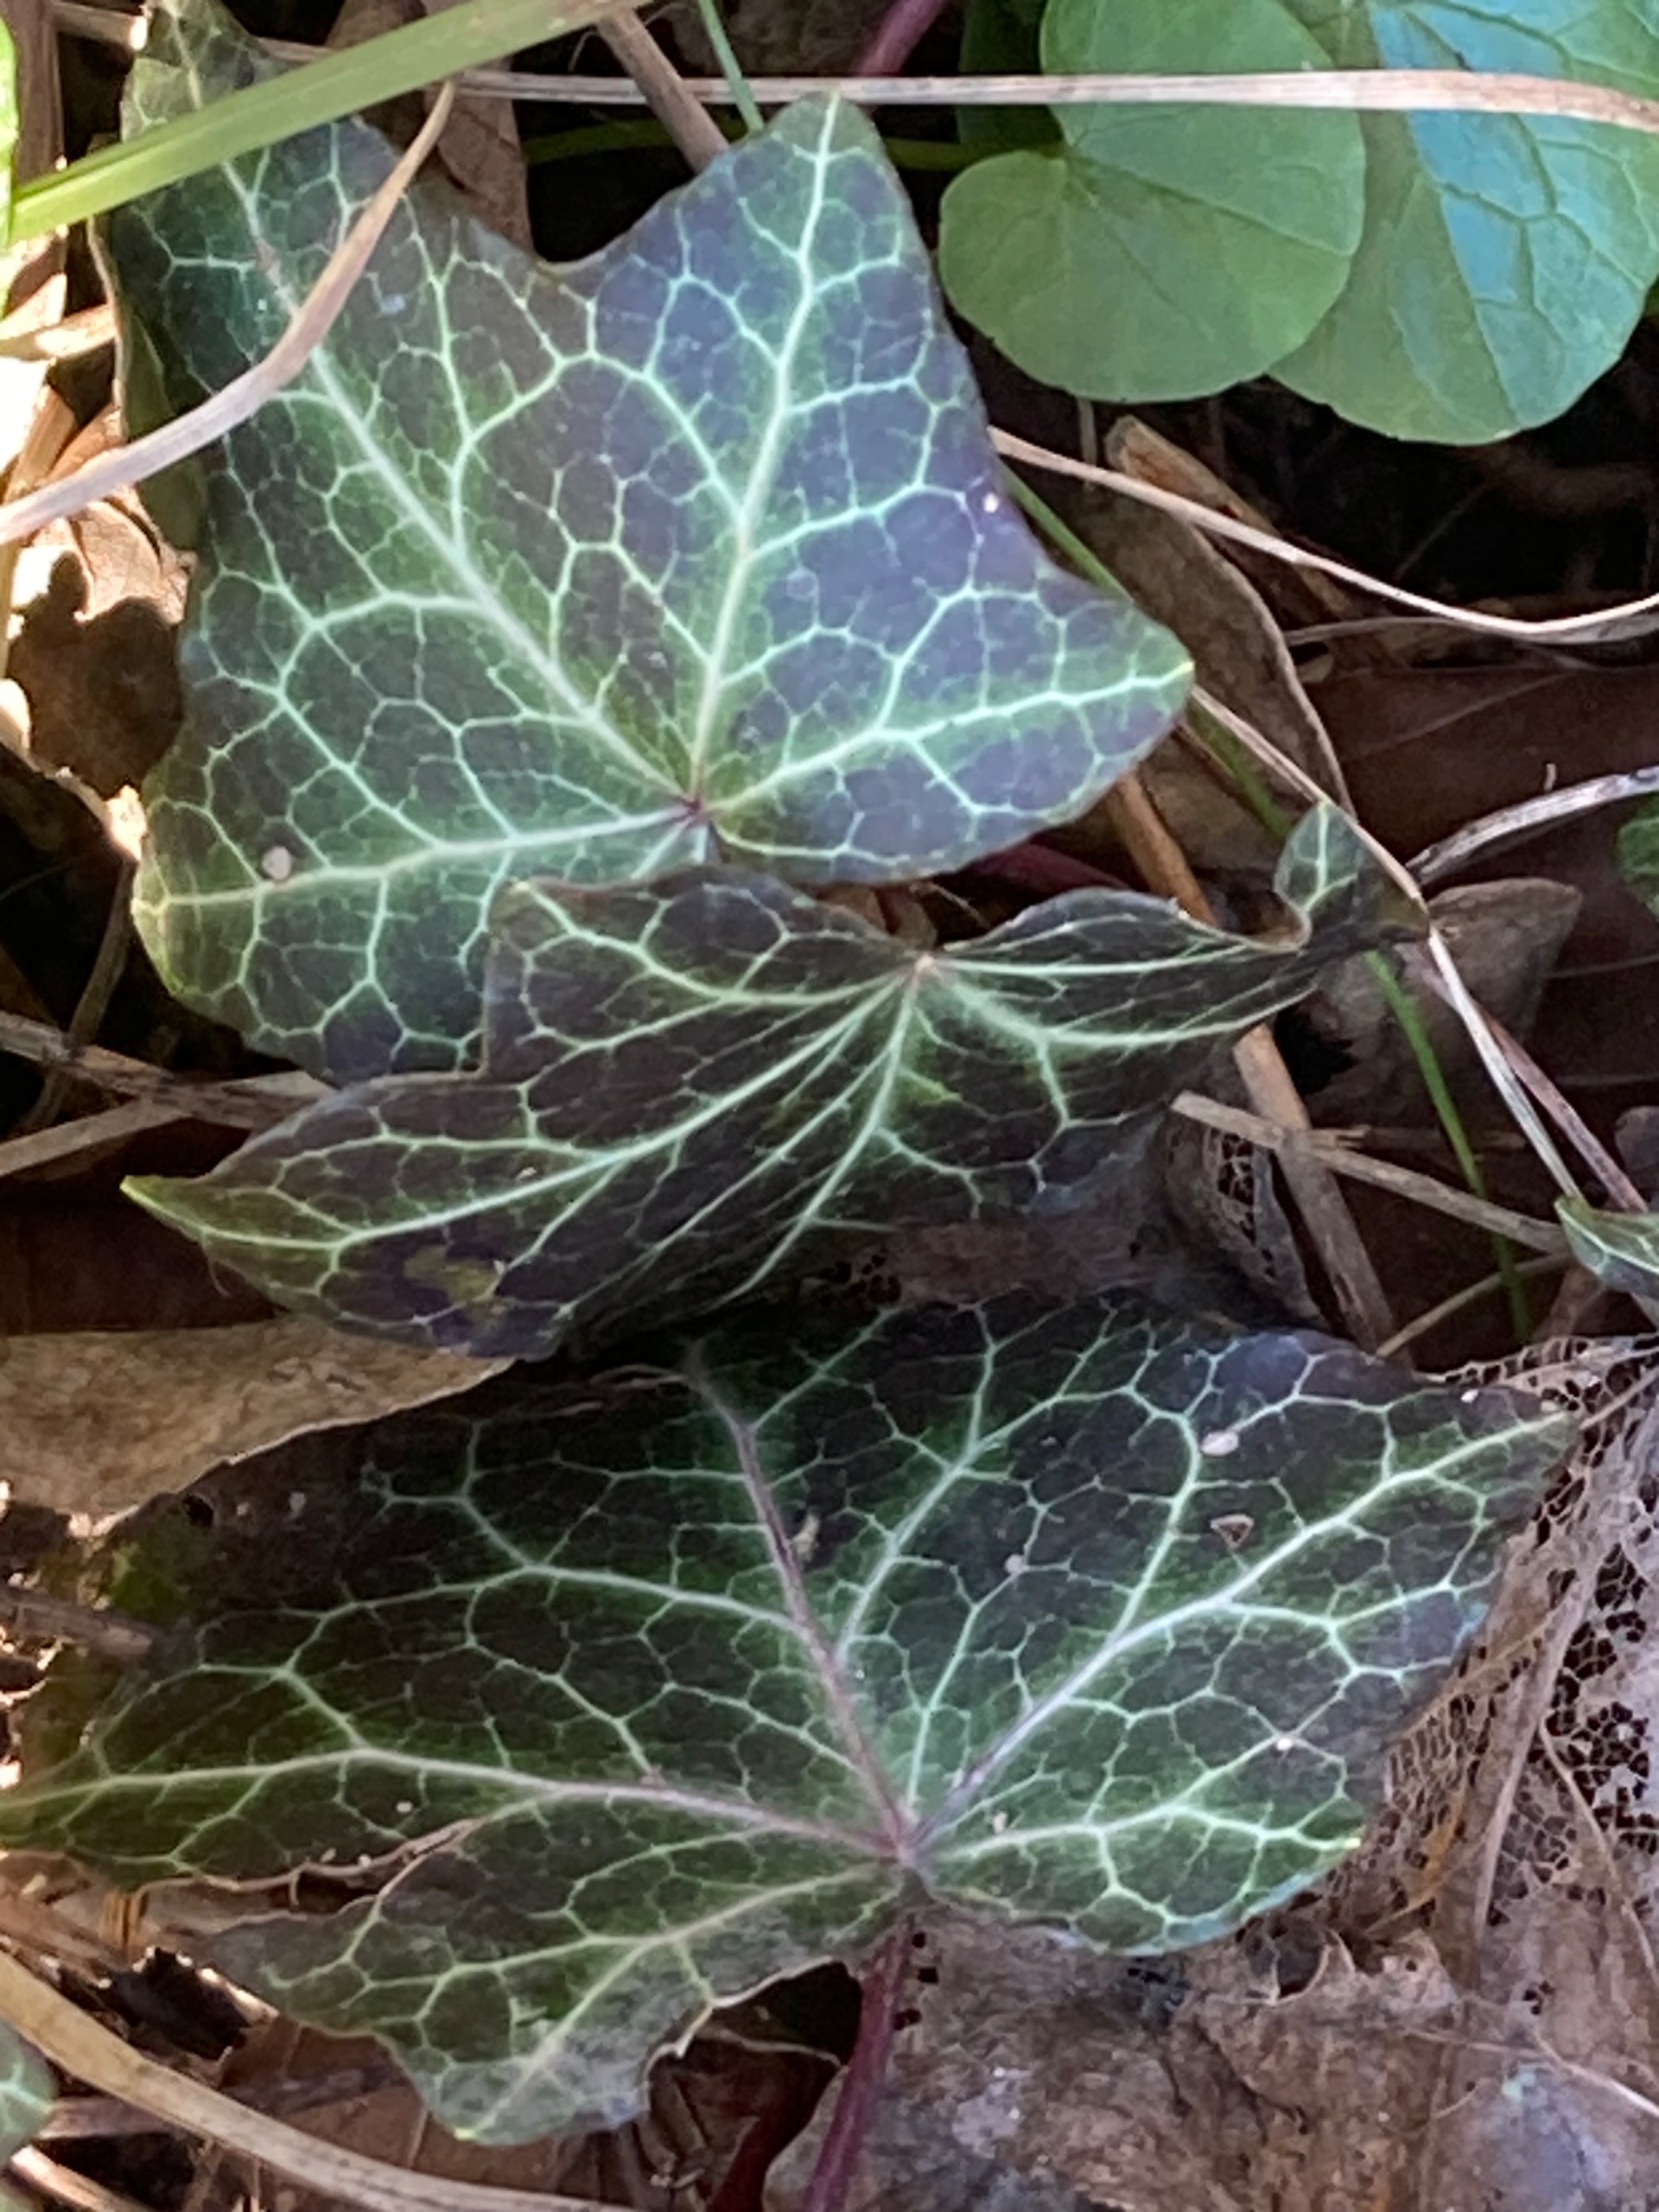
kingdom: Plantae
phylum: Tracheophyta
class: Magnoliopsida
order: Apiales
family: Araliaceae
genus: Hedera
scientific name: Hedera helix
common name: Vedbend
